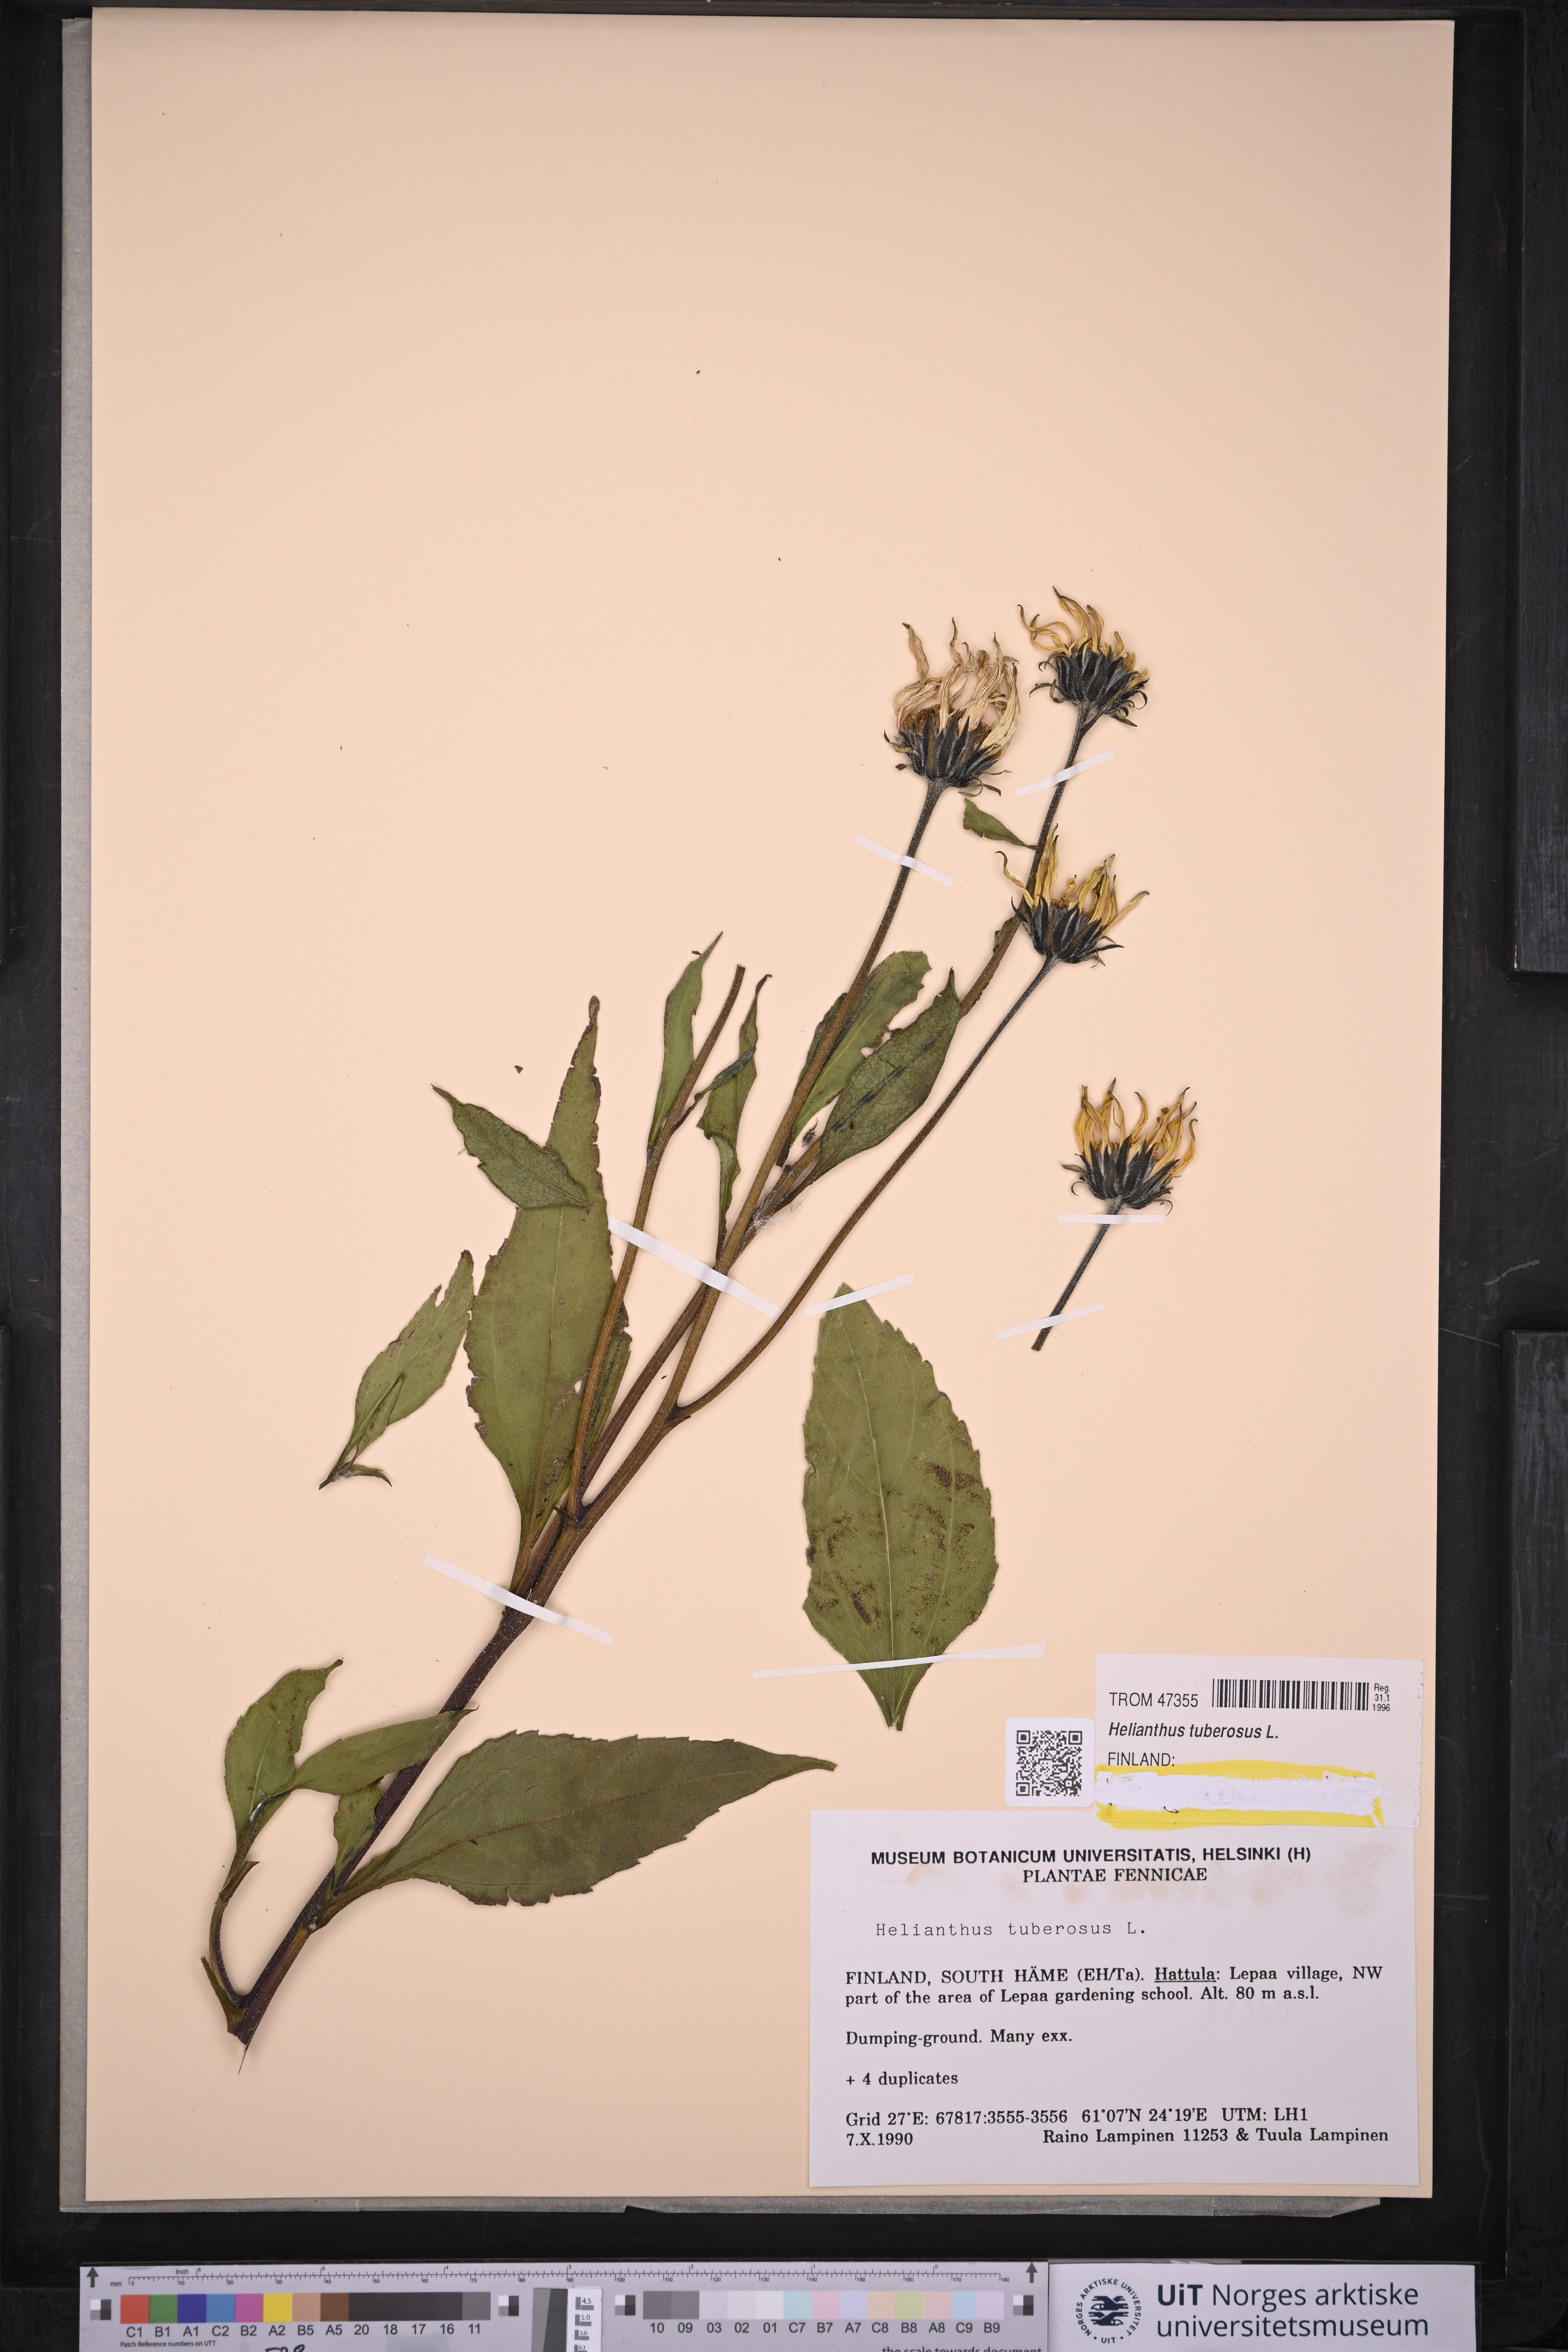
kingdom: Plantae
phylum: Tracheophyta
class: Magnoliopsida
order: Asterales
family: Asteraceae
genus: Helianthus
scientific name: Helianthus tuberosus
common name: Jerusalem artichoke
